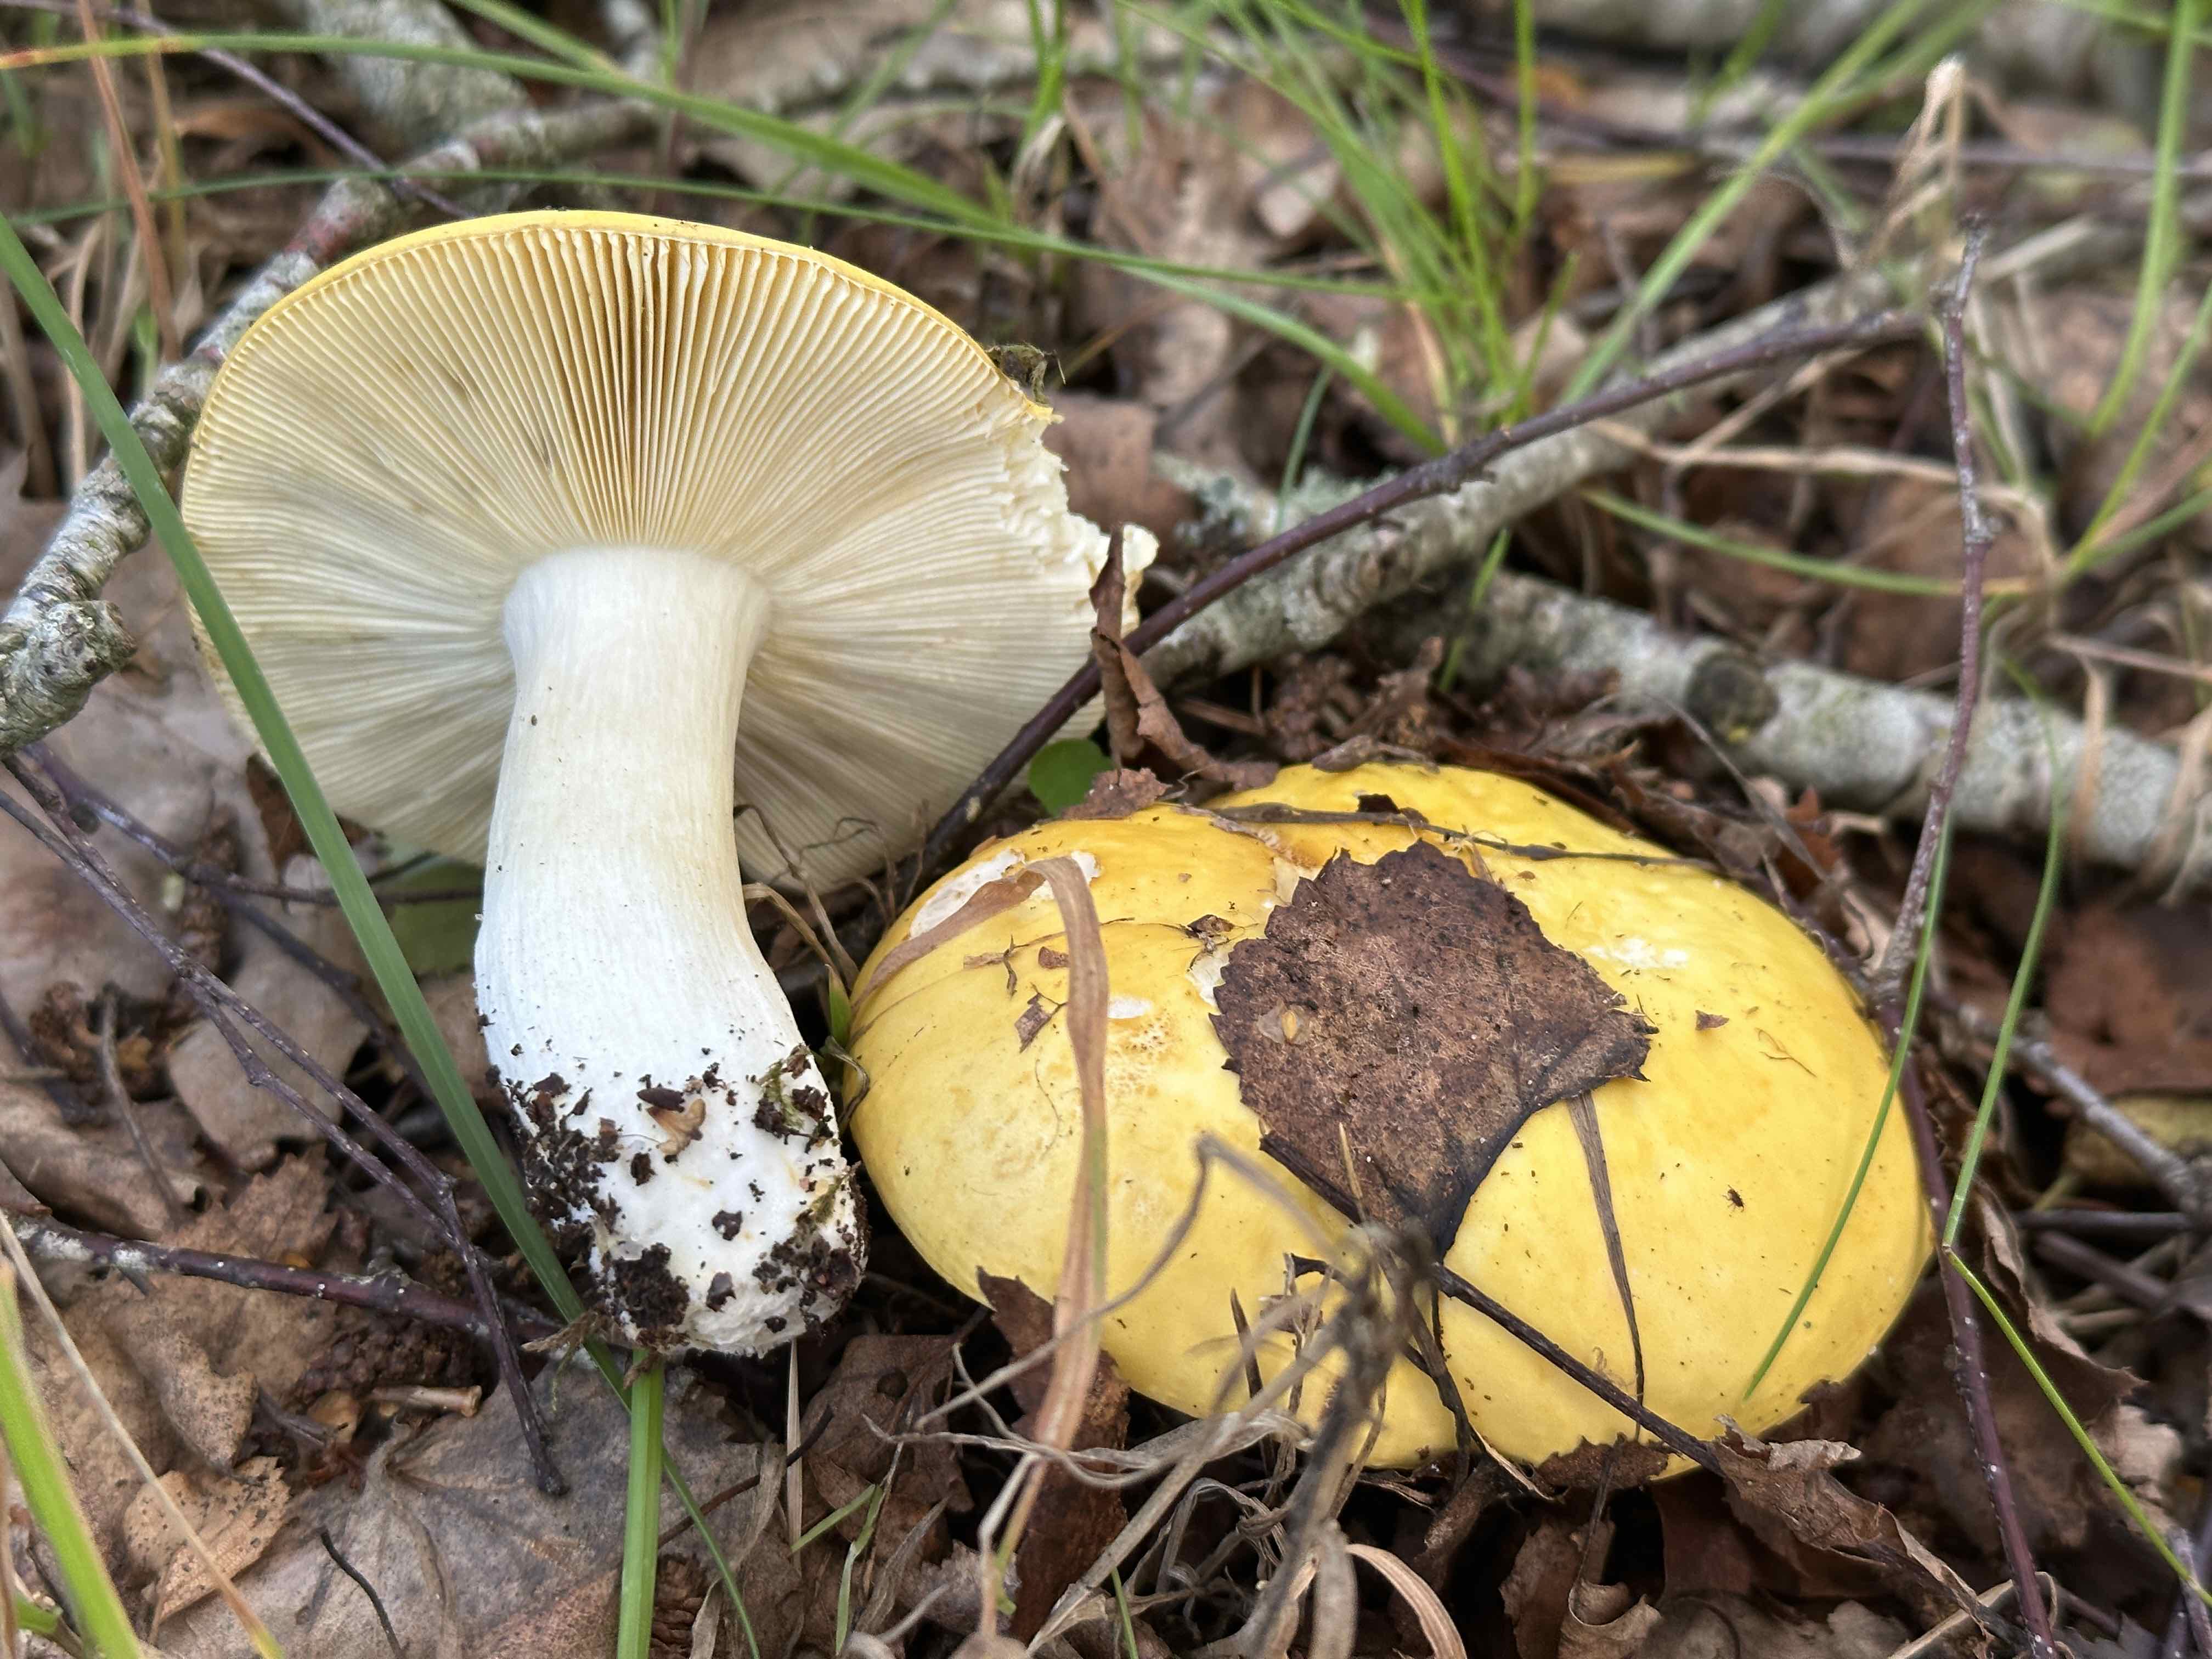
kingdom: Fungi
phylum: Basidiomycota
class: Agaricomycetes
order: Russulales
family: Russulaceae
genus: Russula
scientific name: Russula claroflava
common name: birke-skørhat
